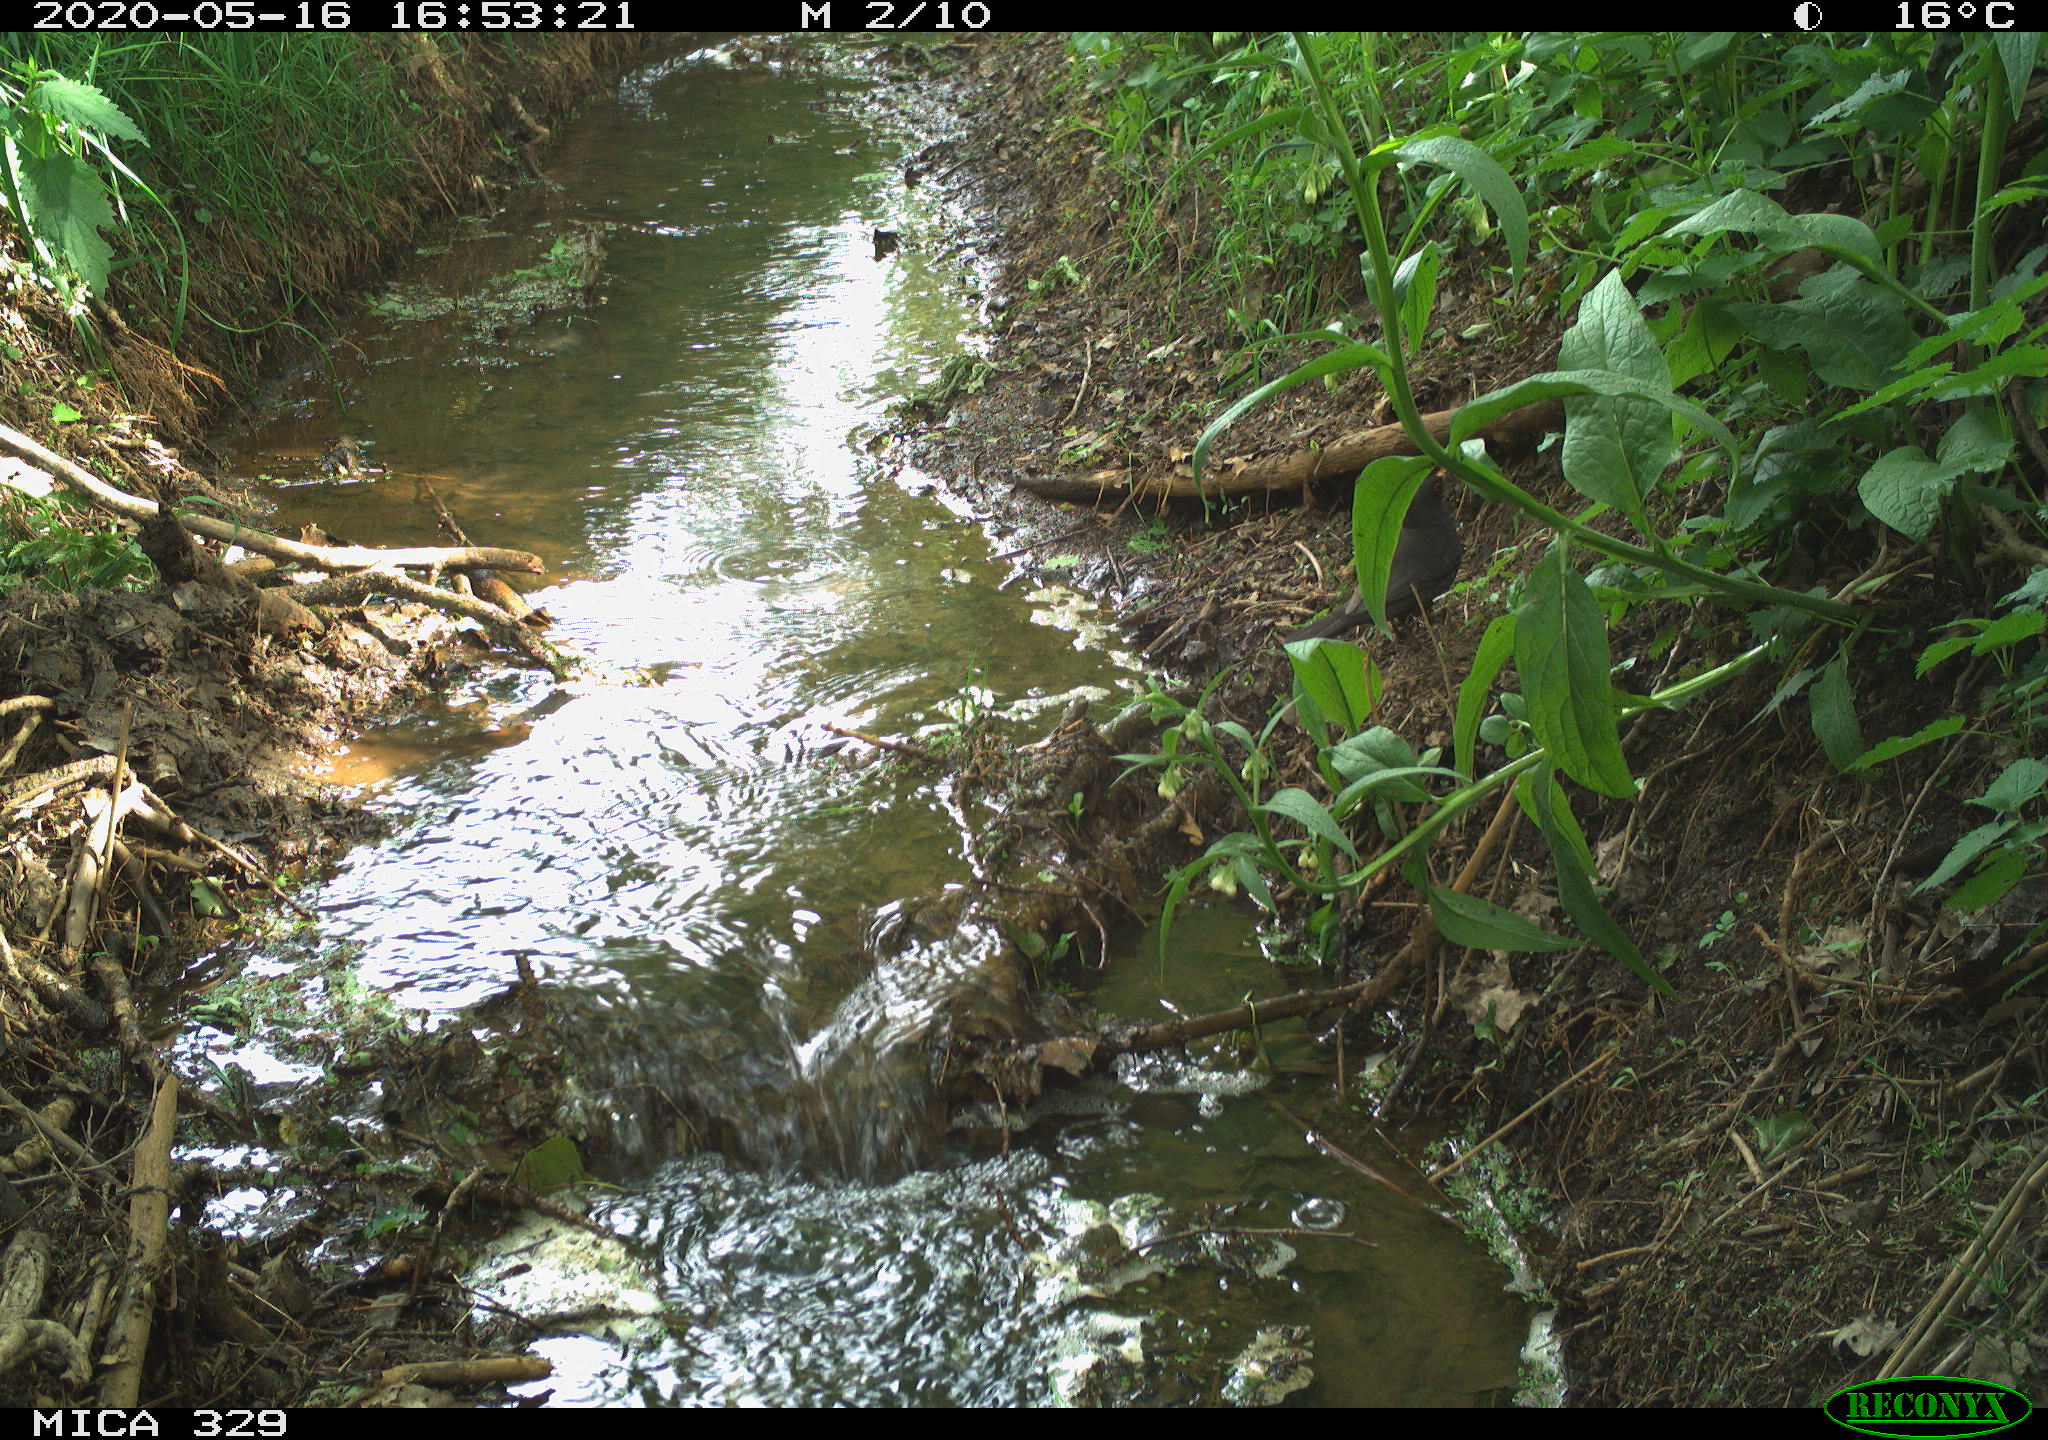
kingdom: Animalia
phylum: Chordata
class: Aves
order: Passeriformes
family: Turdidae
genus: Turdus
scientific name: Turdus merula
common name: Common blackbird
